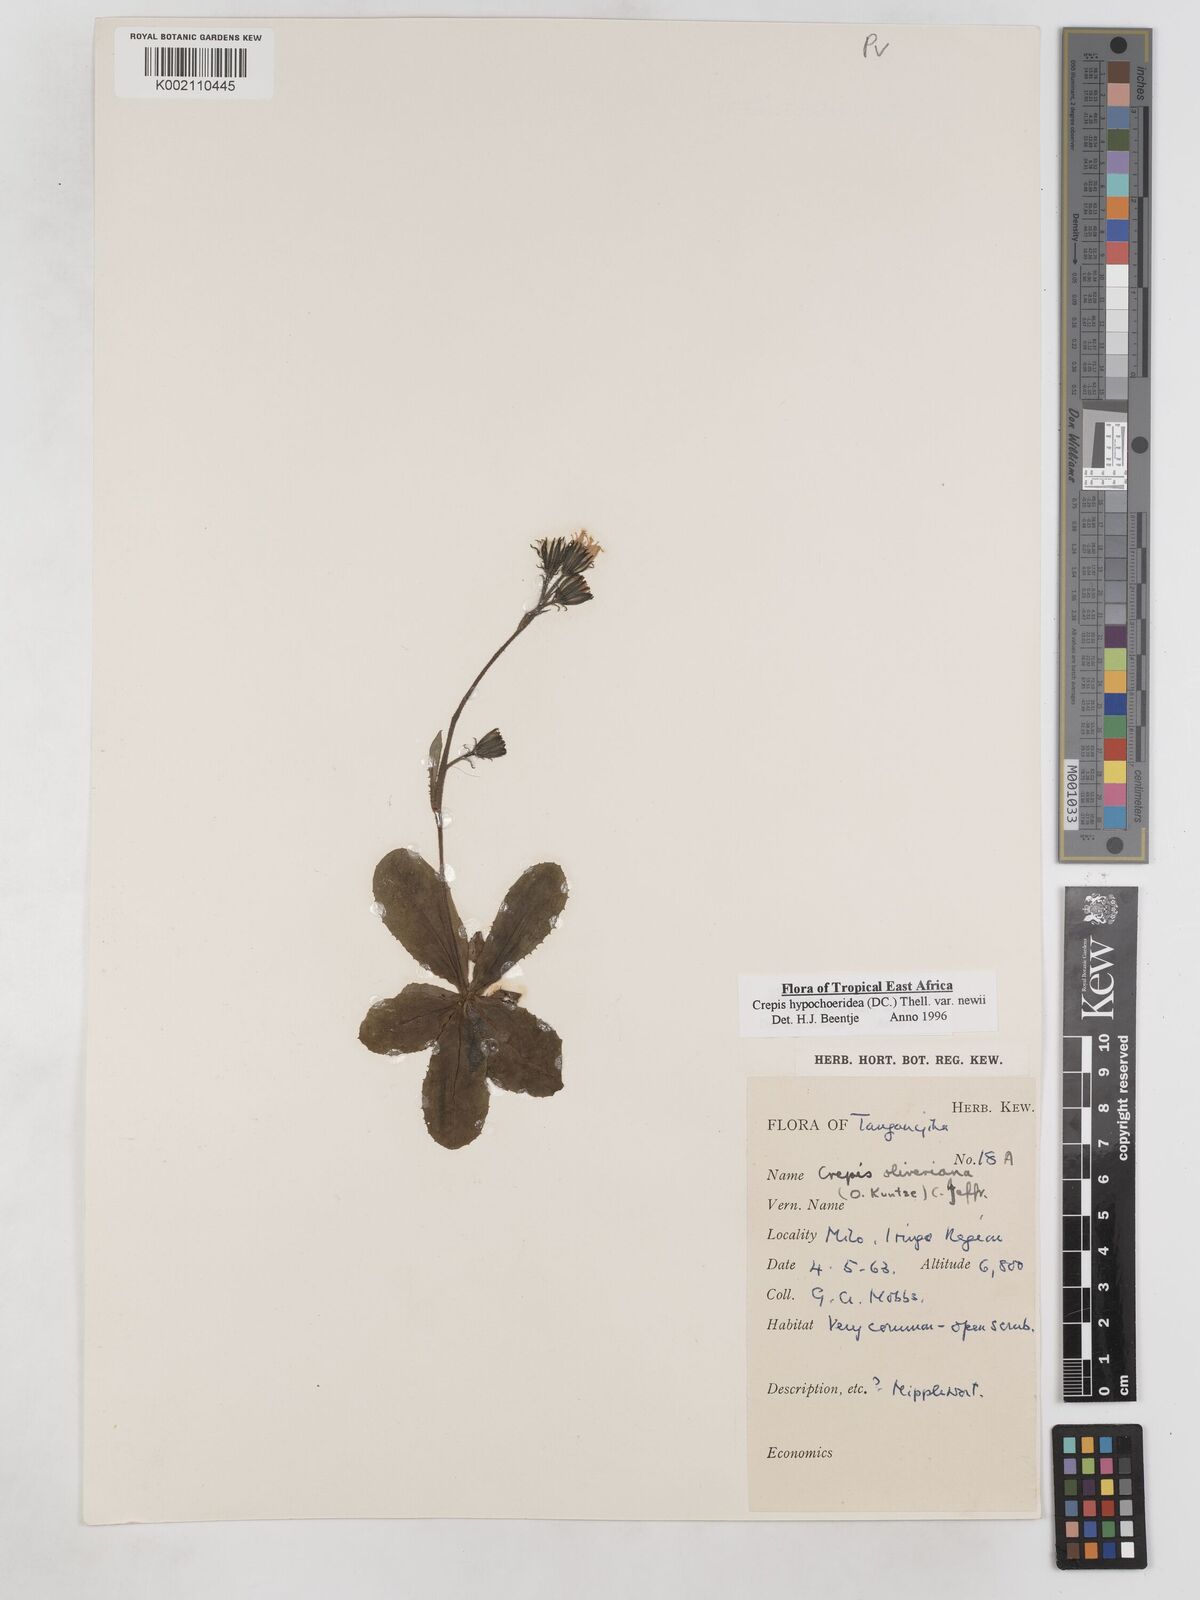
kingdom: Plantae
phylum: Tracheophyta
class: Magnoliopsida
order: Asterales
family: Asteraceae
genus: Crepis
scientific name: Crepis hypochoeridea
